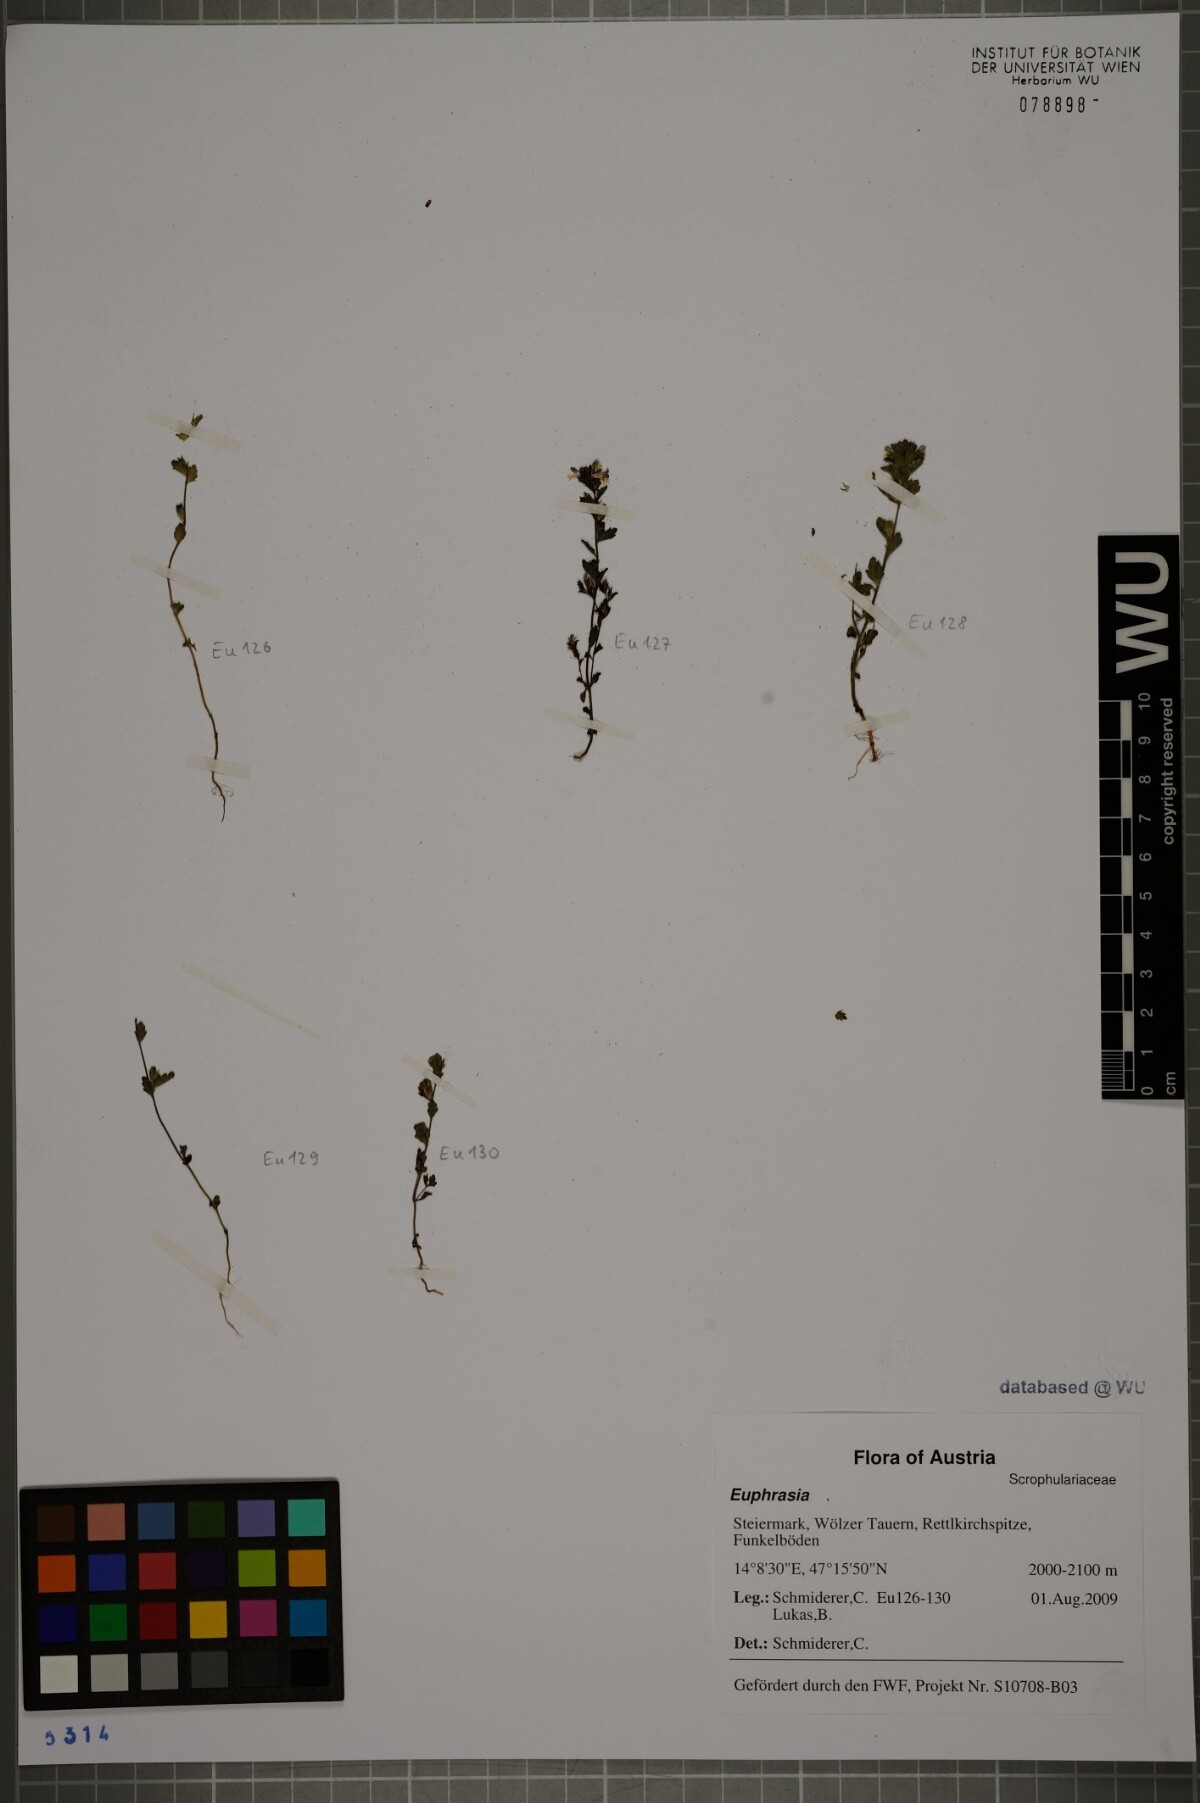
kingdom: Plantae
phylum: Tracheophyta
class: Magnoliopsida
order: Lamiales
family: Orobanchaceae
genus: Euphrasia
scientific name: Euphrasia
